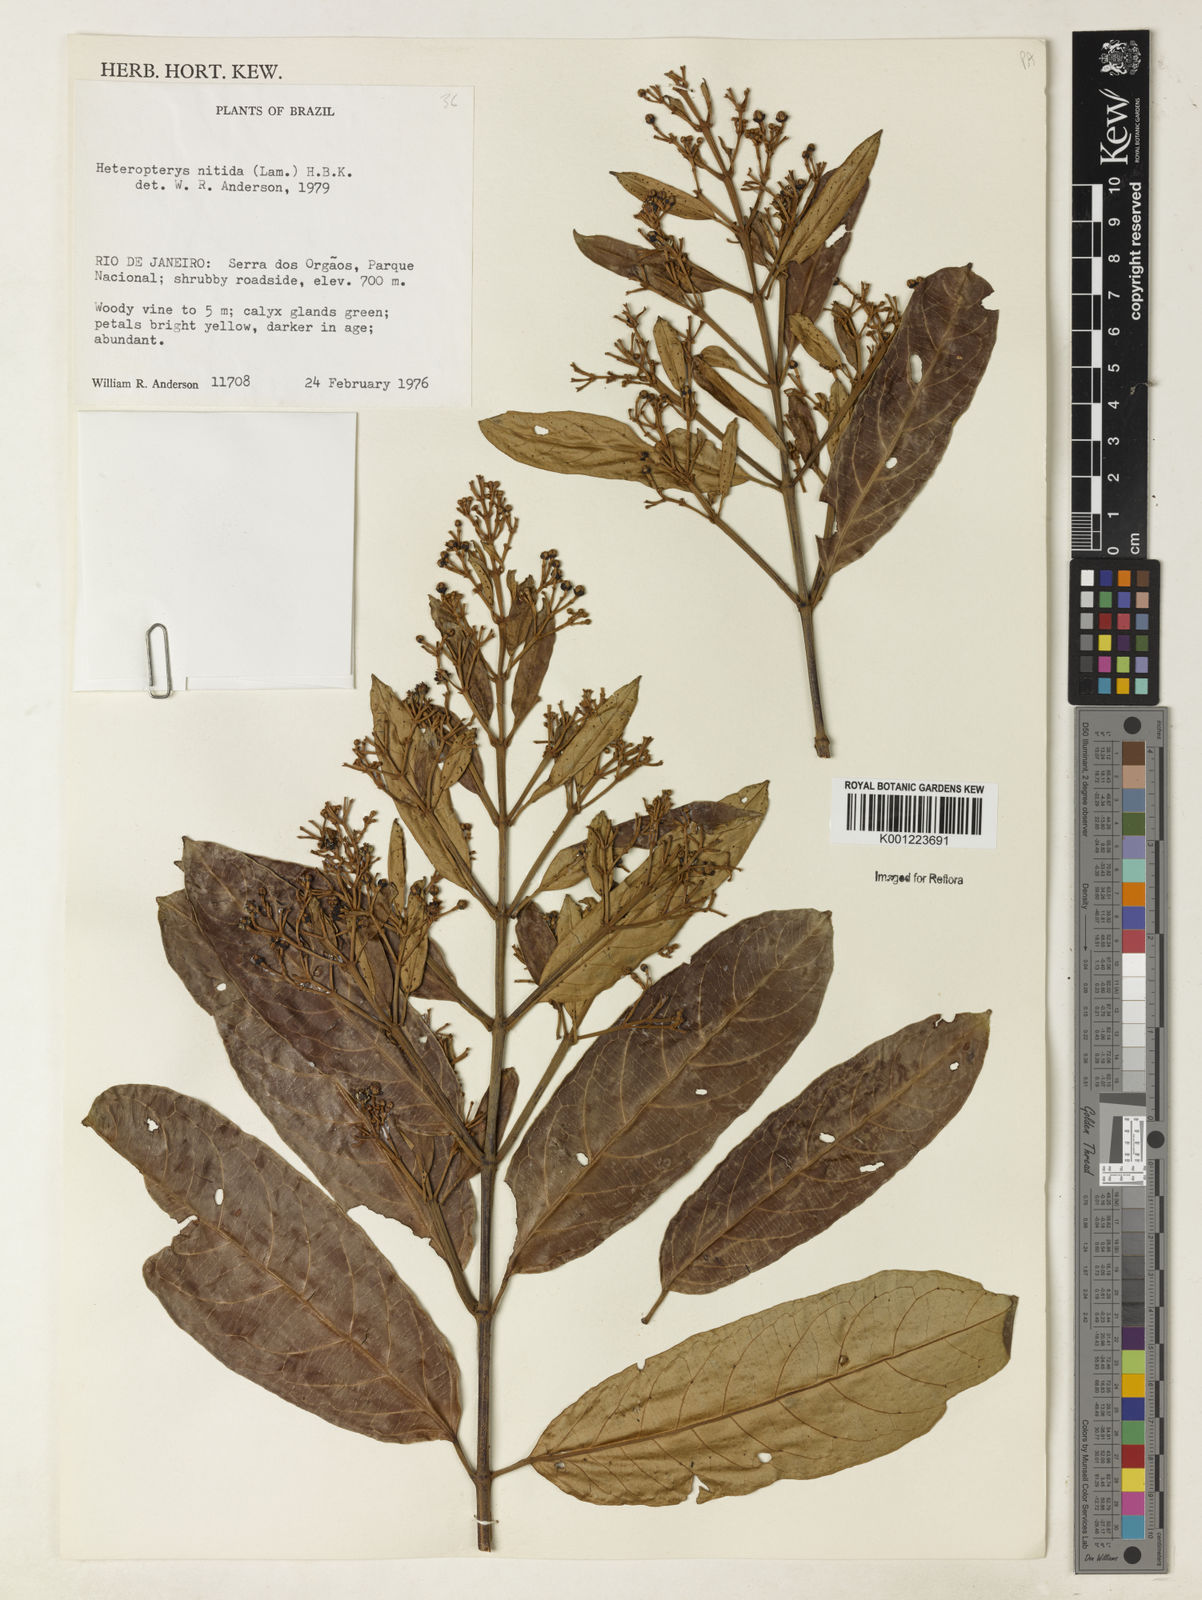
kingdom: Plantae
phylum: Tracheophyta
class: Magnoliopsida
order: Malpighiales
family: Malpighiaceae
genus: Heteropterys
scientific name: Heteropterys nitida
